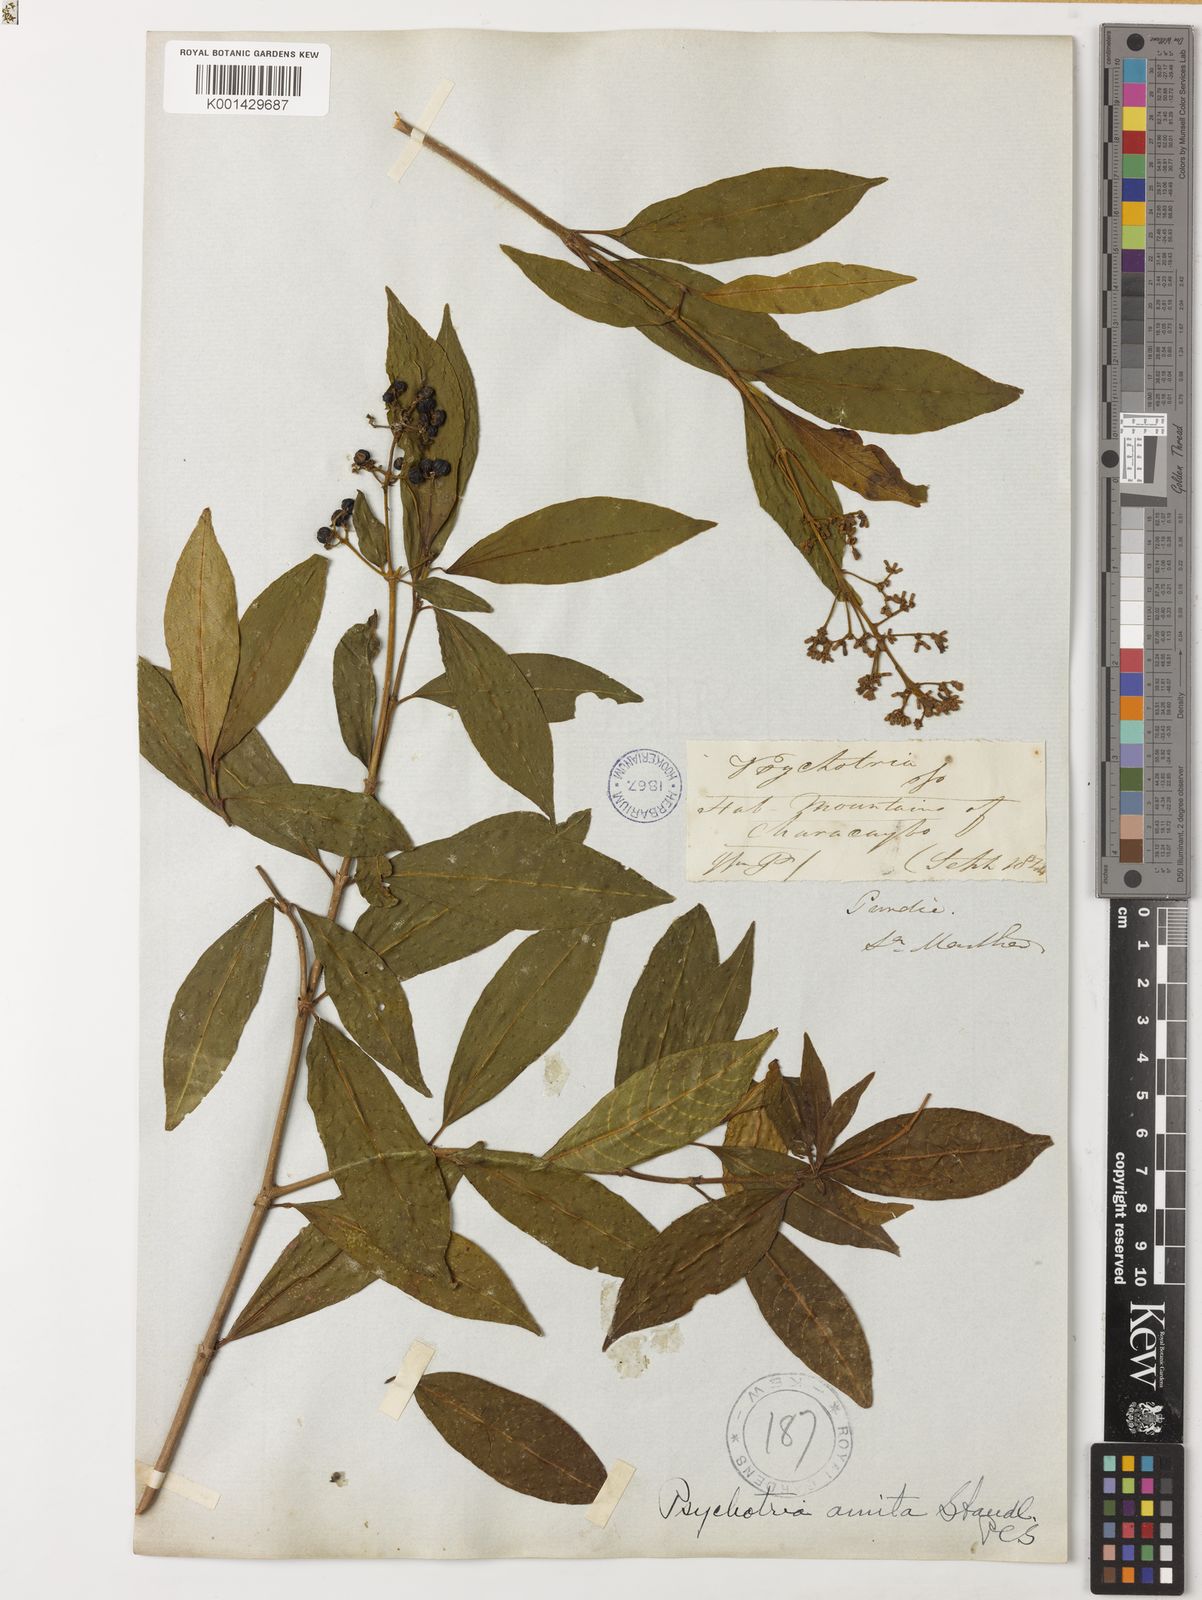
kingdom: Plantae
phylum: Tracheophyta
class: Magnoliopsida
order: Gentianales
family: Rubiaceae
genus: Palicourea
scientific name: Palicourea amita
